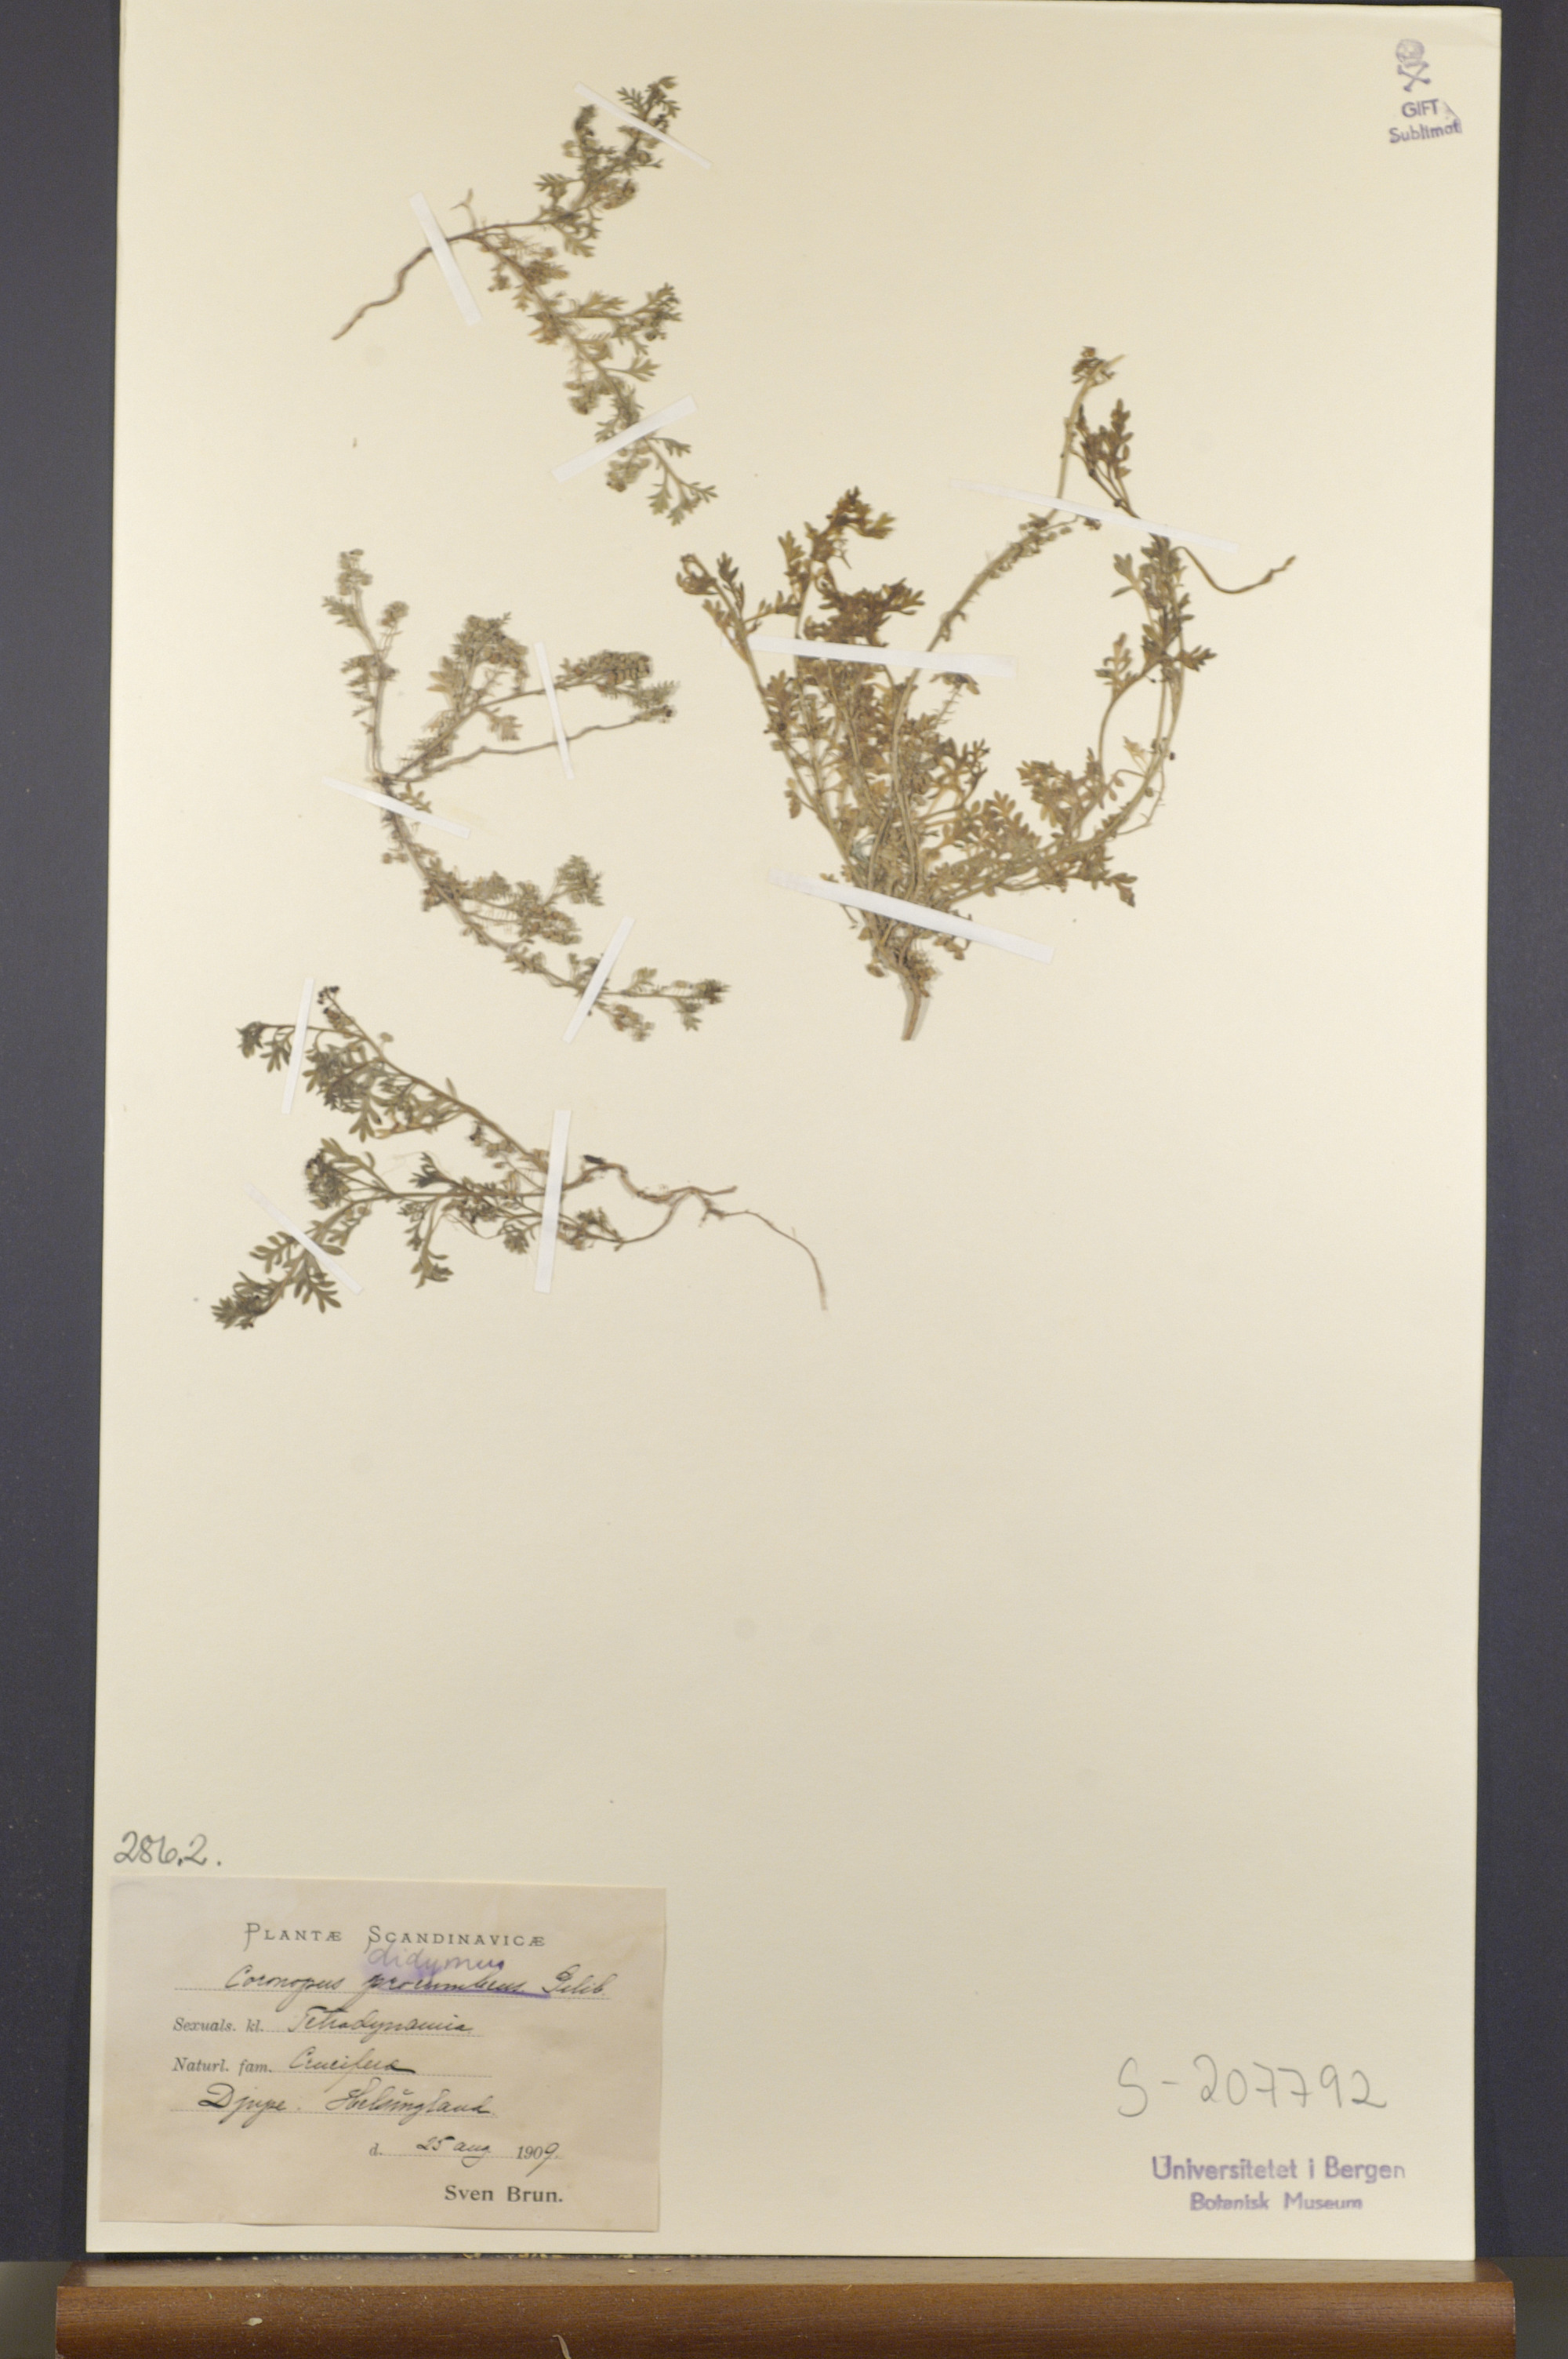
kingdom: Plantae
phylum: Tracheophyta
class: Magnoliopsida
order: Brassicales
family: Brassicaceae
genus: Lepidium
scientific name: Lepidium didymum
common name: Lesser swinecress
